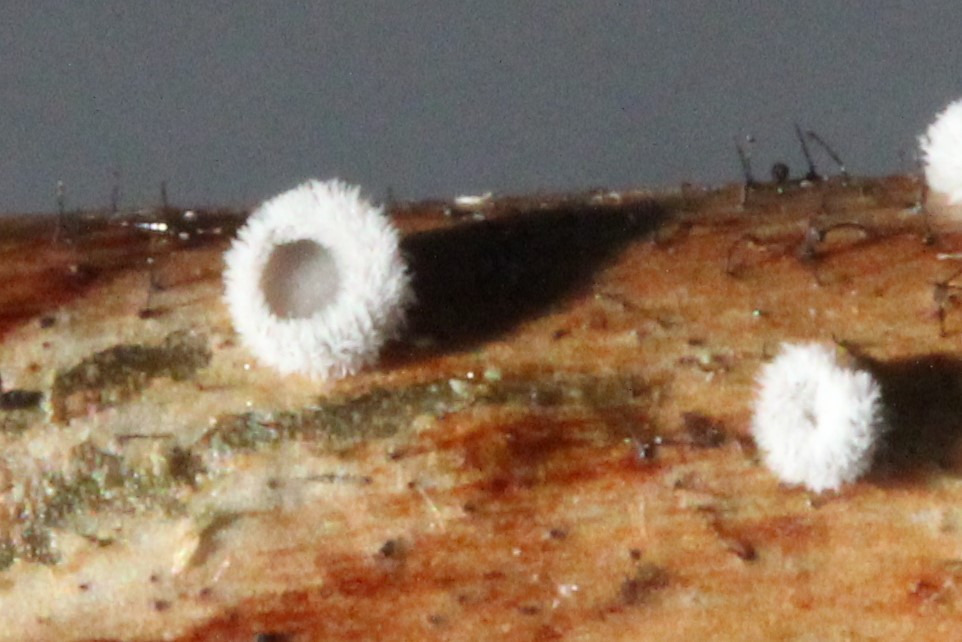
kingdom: Fungi
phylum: Basidiomycota
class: Agaricomycetes
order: Agaricales
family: Niaceae
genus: Lachnella
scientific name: Lachnella alboviolascens
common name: grå frynserede
